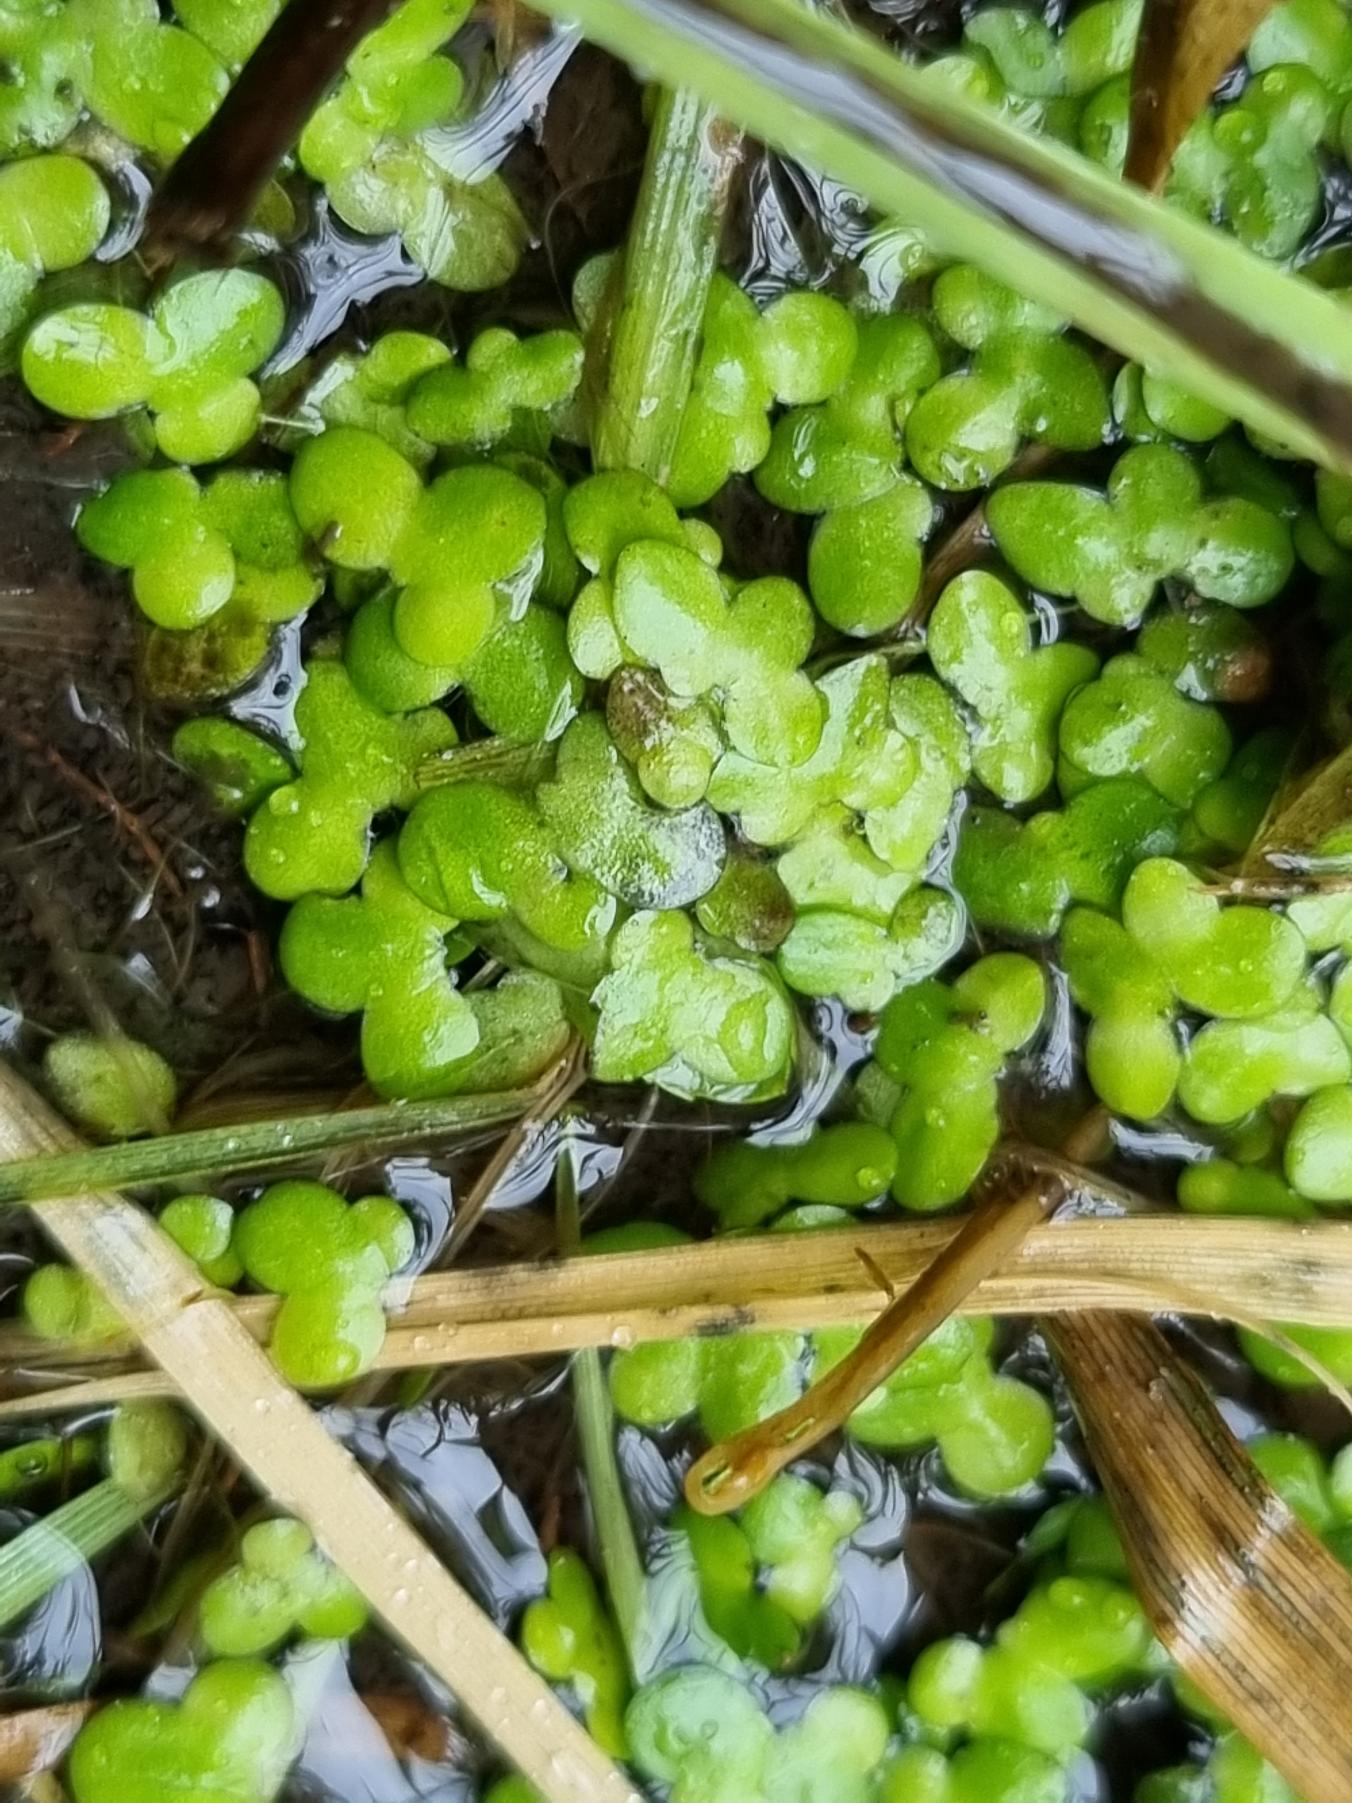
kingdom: Plantae
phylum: Tracheophyta
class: Liliopsida
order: Alismatales
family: Araceae
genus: Lemna
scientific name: Lemna minor
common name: Liden andemad
